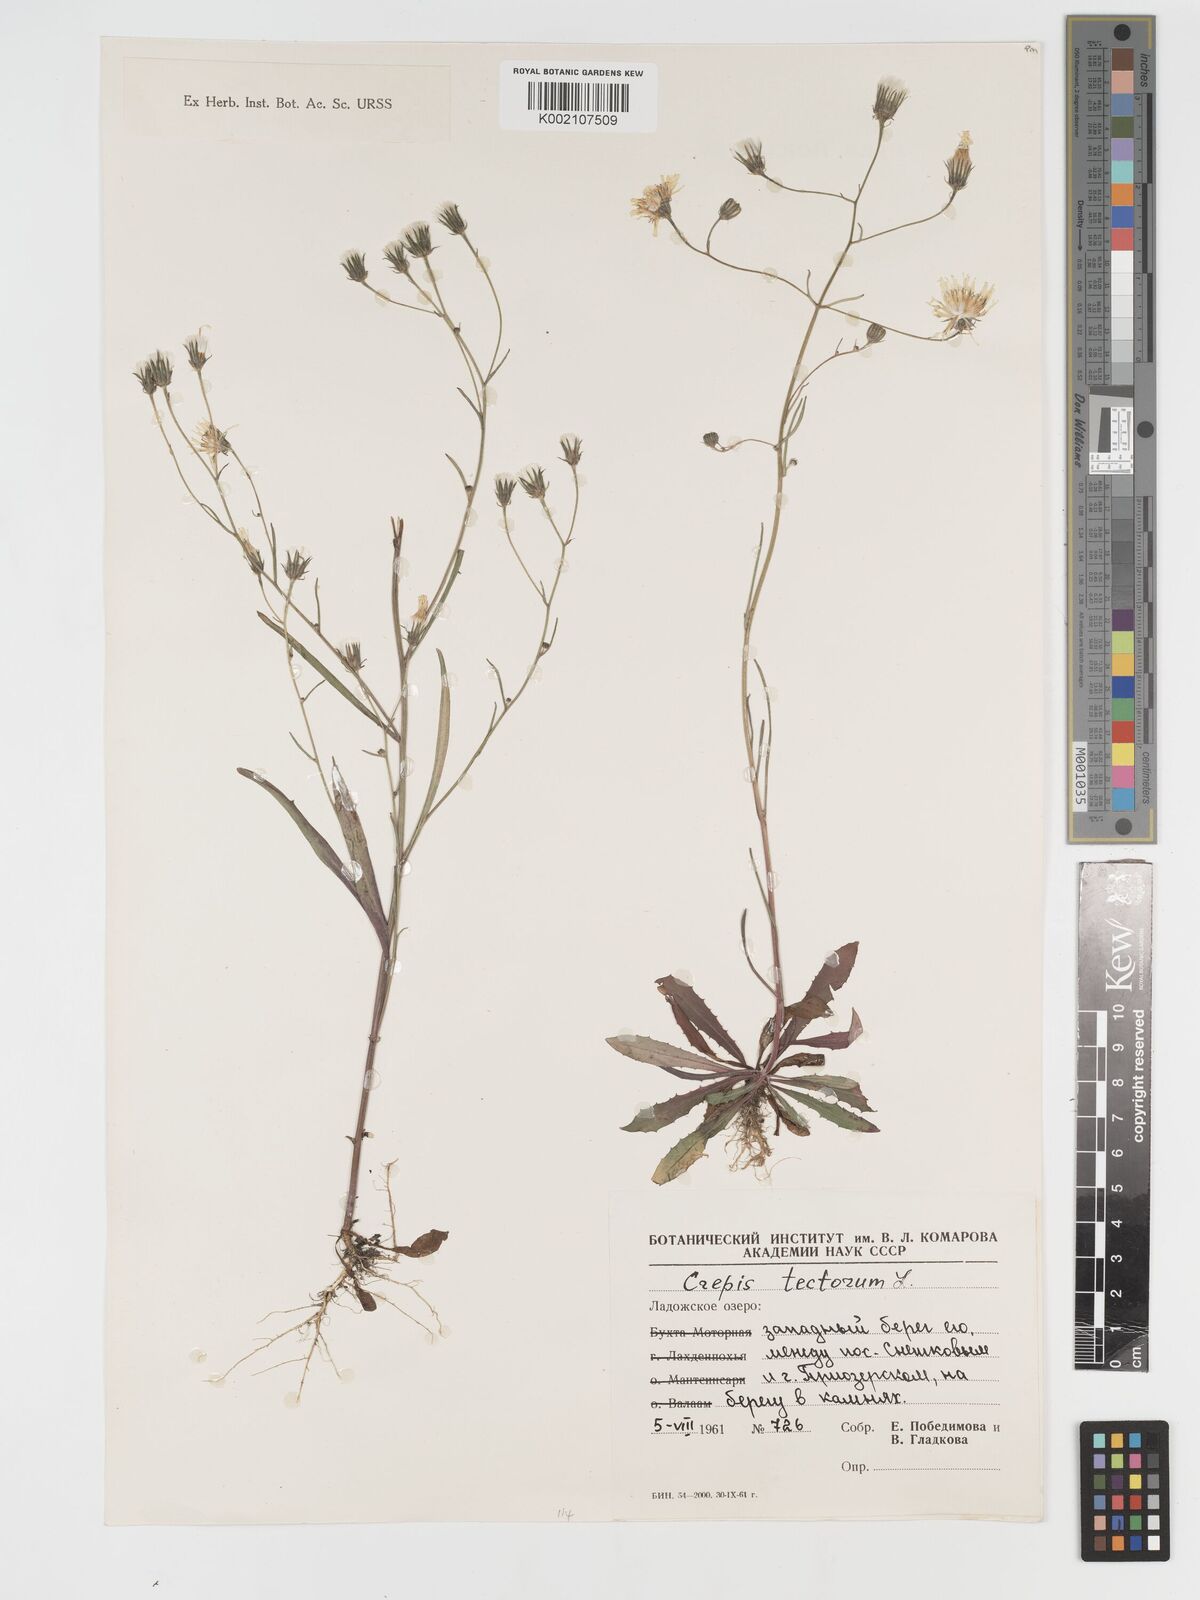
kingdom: Plantae
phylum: Tracheophyta
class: Magnoliopsida
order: Asterales
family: Asteraceae
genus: Crepis
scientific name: Crepis tectorum
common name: Narrow-leaved hawk's-beard
